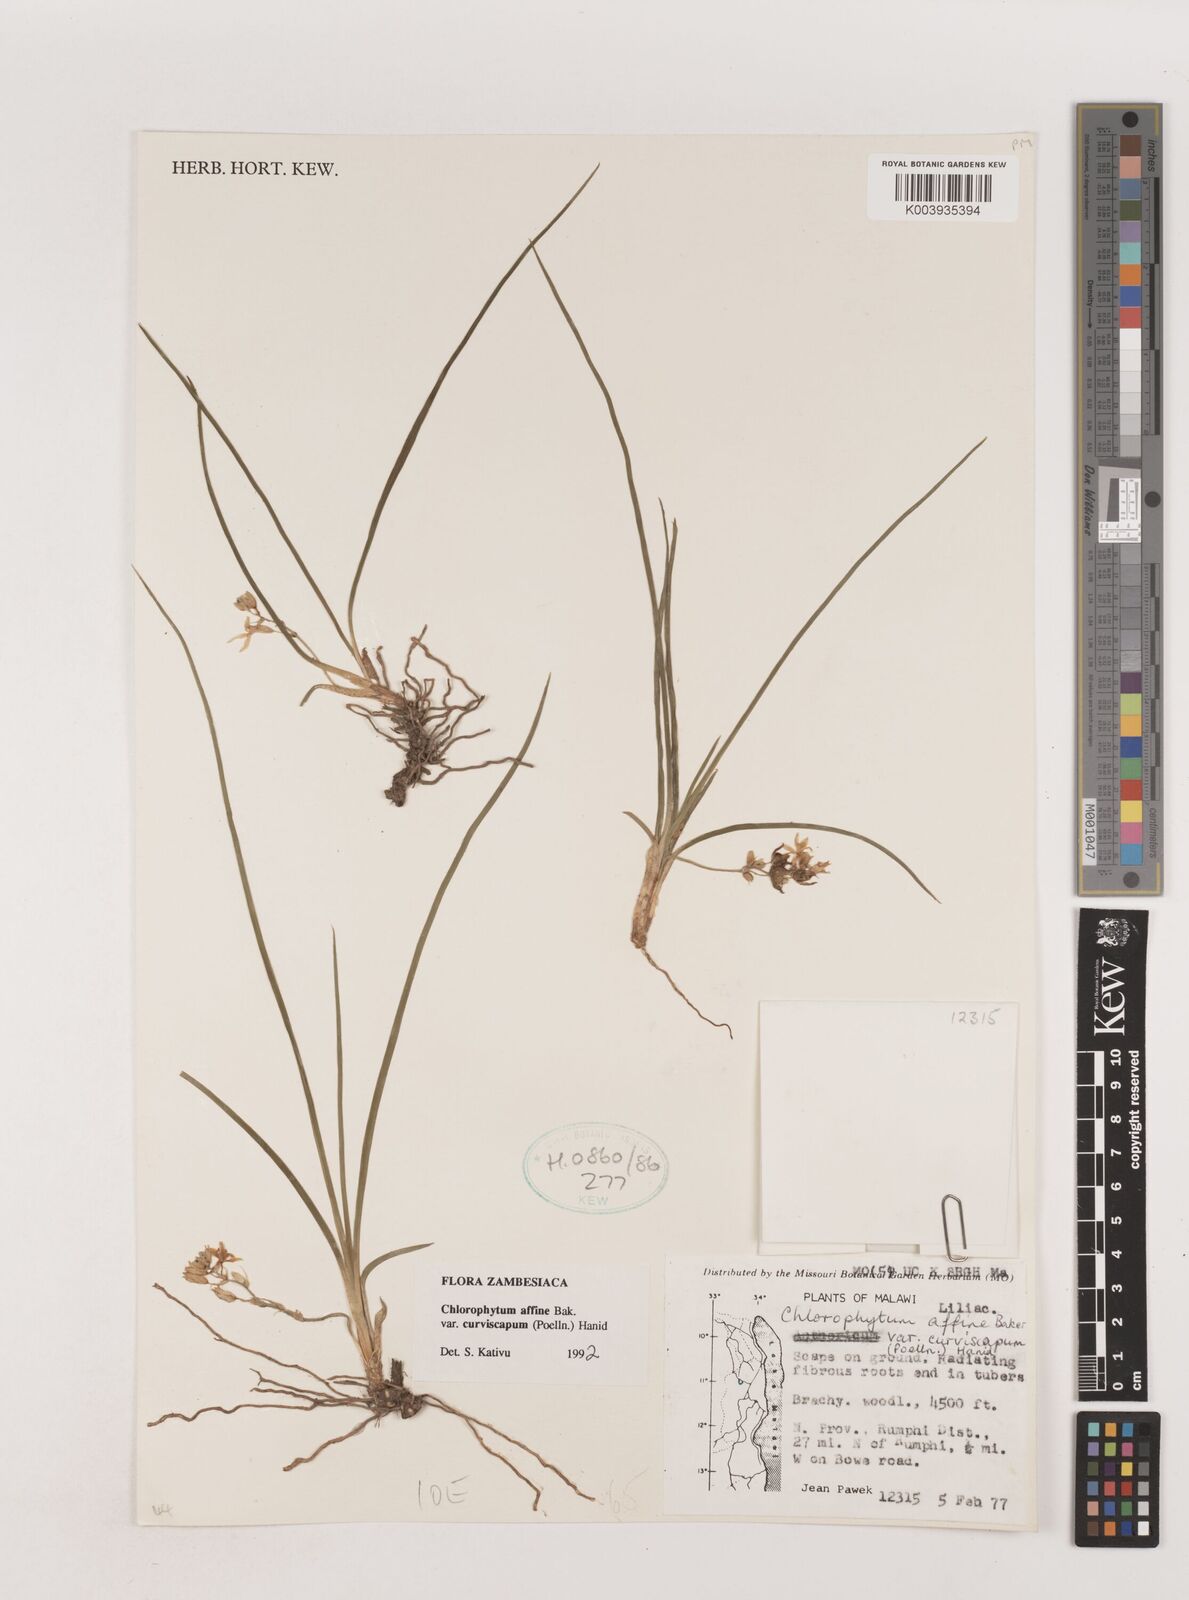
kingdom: Plantae
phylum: Tracheophyta
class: Liliopsida
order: Asparagales
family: Asparagaceae
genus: Chlorophytum
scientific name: Chlorophytum tordense
